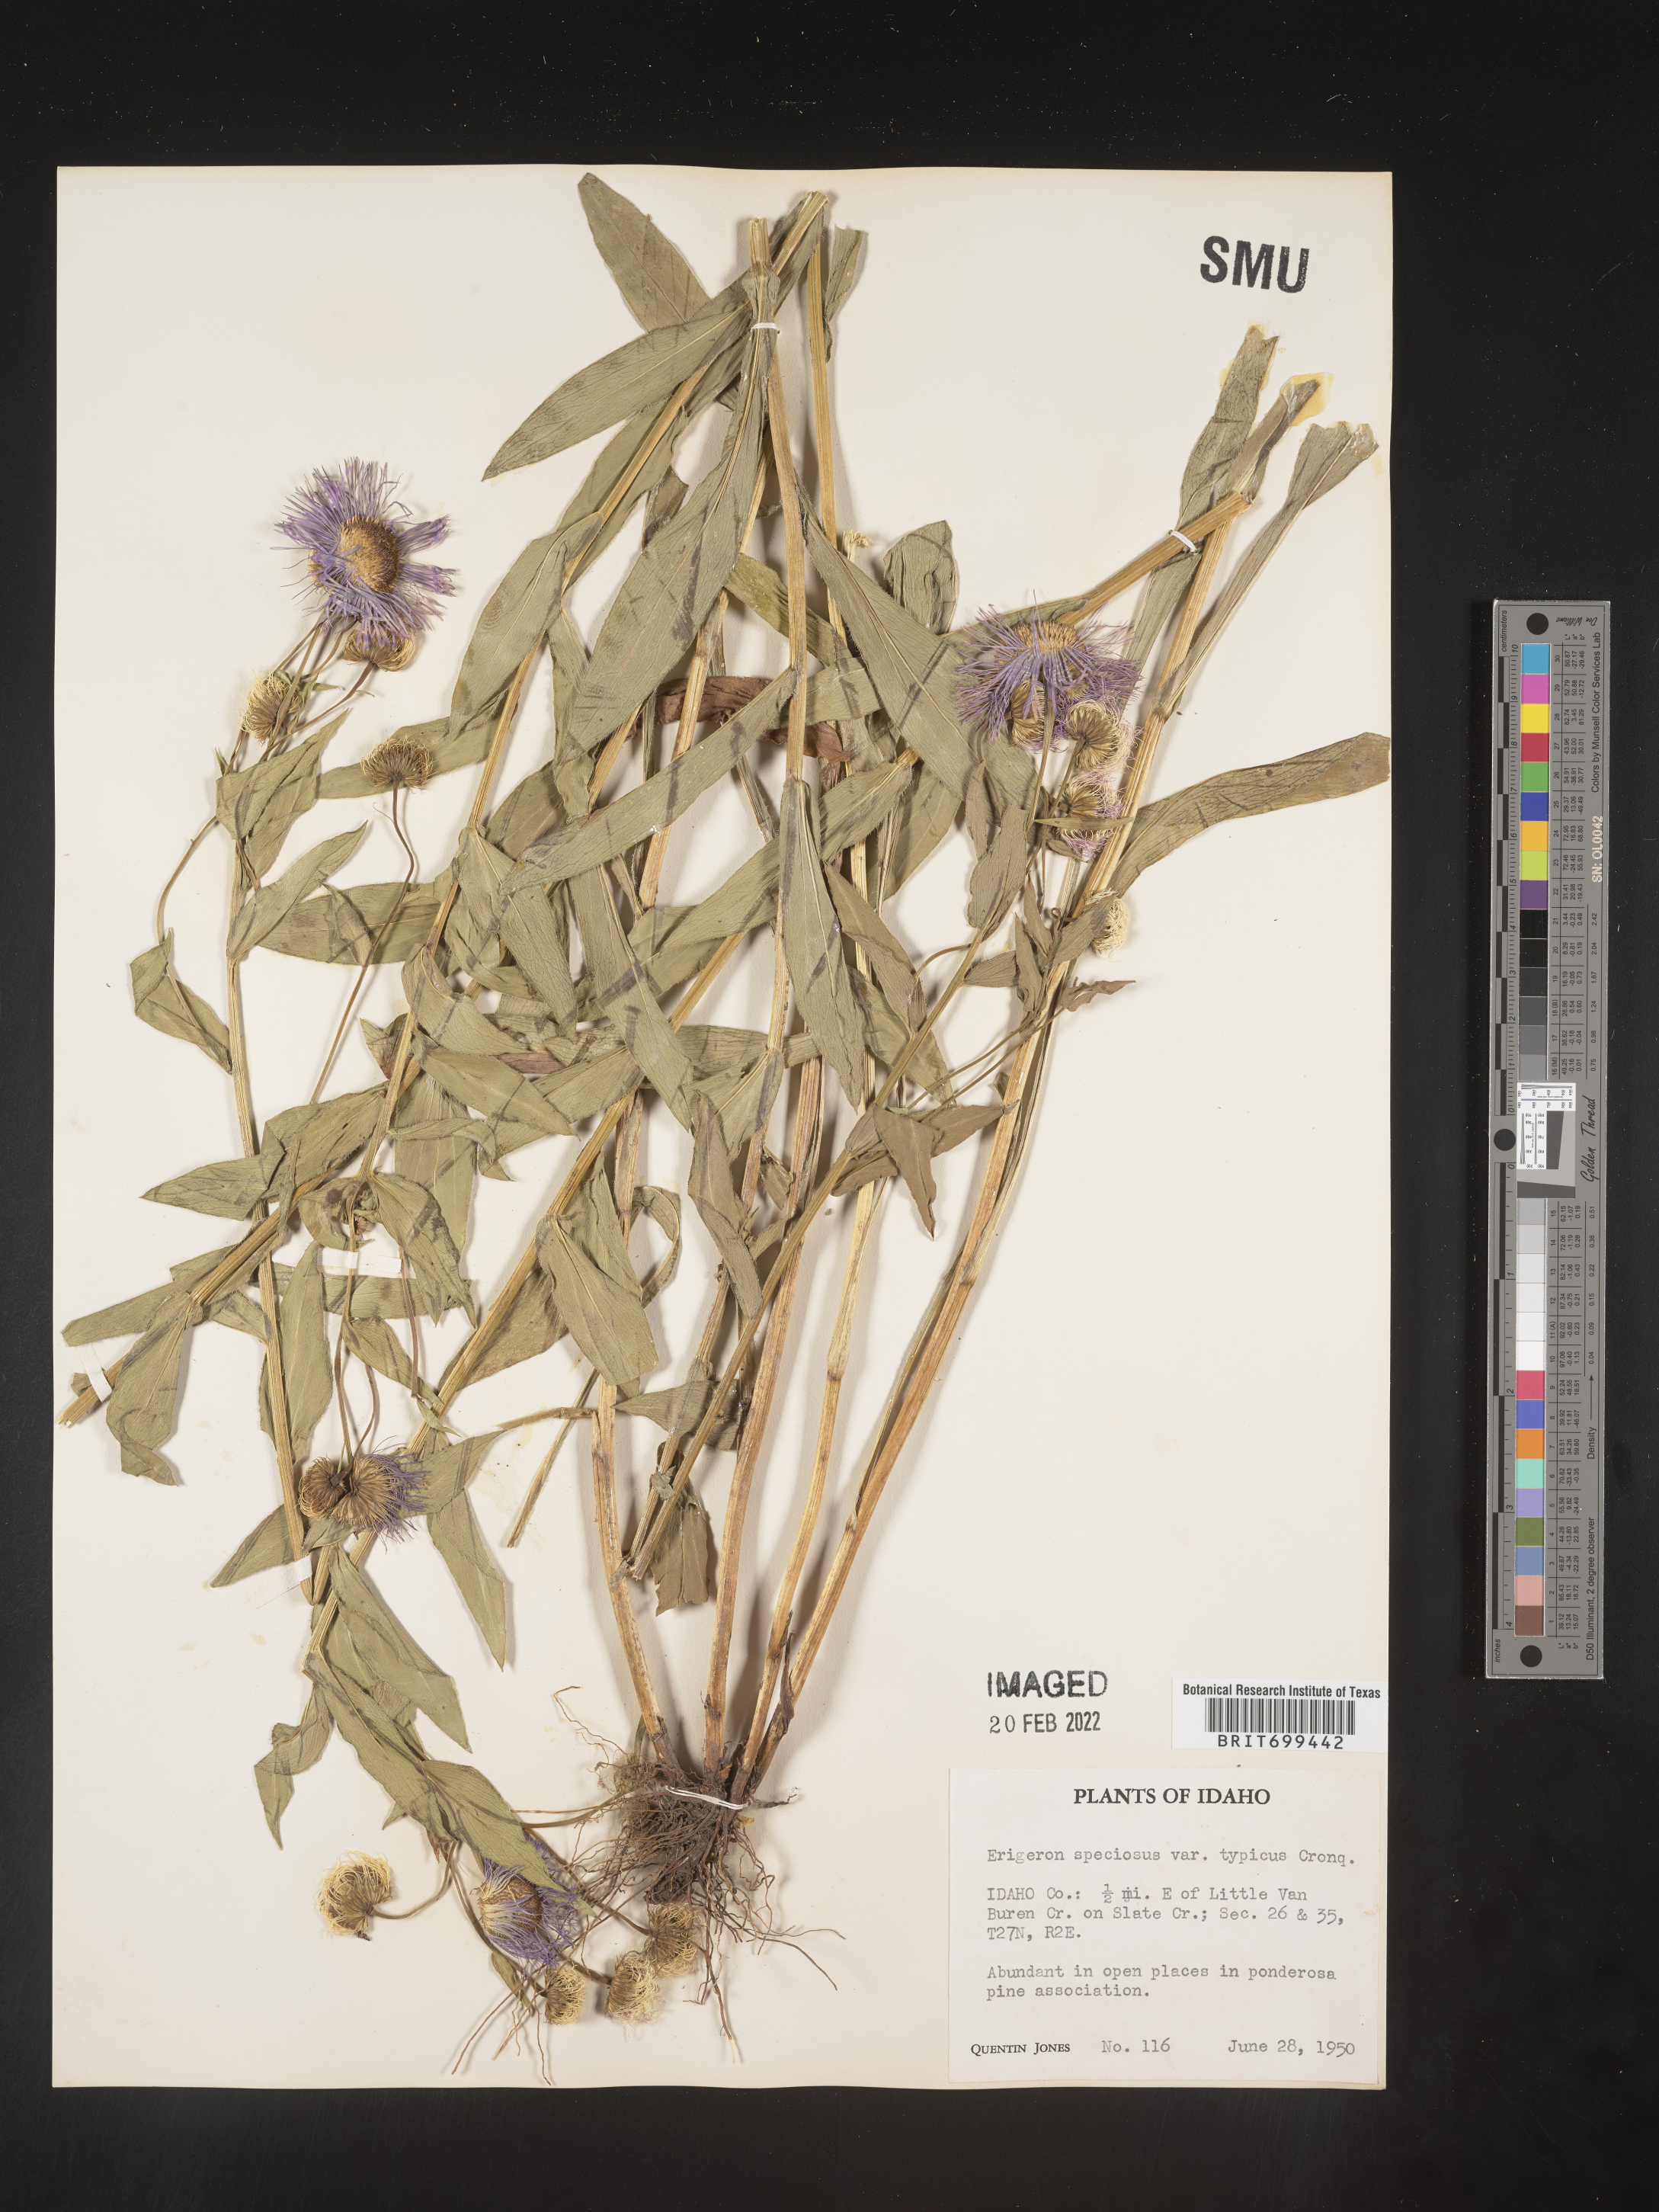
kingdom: Plantae
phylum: Tracheophyta
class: Magnoliopsida
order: Asterales
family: Asteraceae
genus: Erigeron
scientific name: Erigeron speciosus
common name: Aspen fleabane
